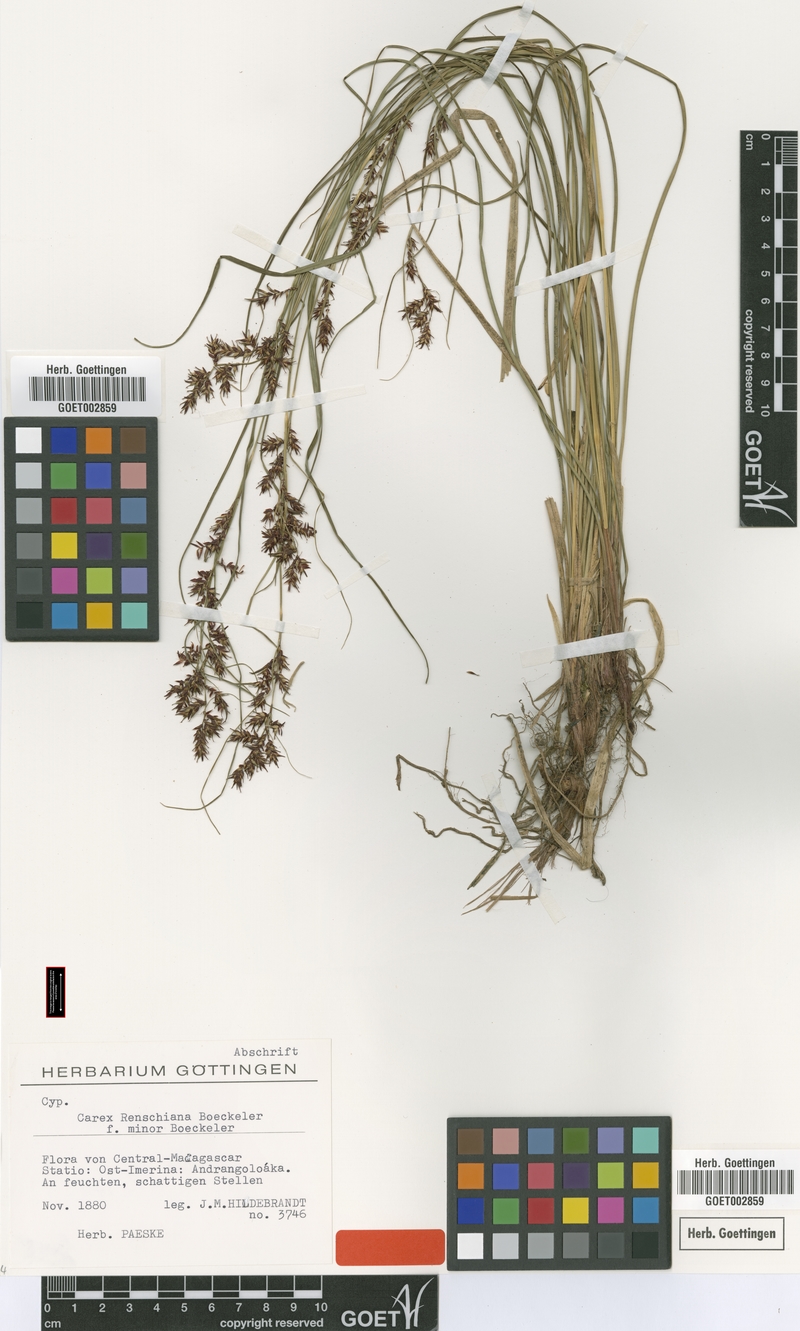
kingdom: Plantae
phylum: Tracheophyta
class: Liliopsida
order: Poales
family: Cyperaceae
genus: Carex
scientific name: Carex renschiana
